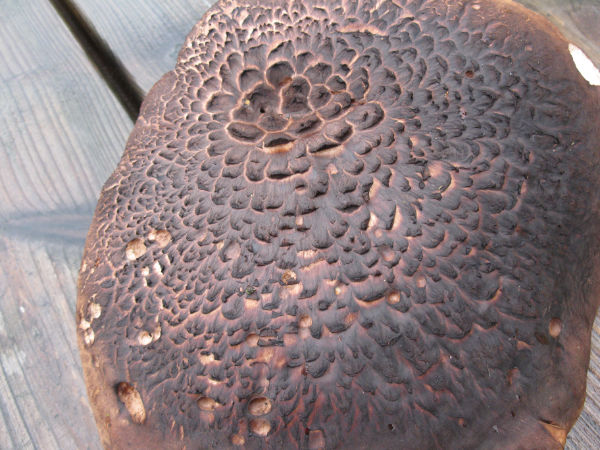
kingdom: Fungi
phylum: Basidiomycota
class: Agaricomycetes
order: Thelephorales
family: Bankeraceae
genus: Sarcodon
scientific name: Sarcodon squamosus
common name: småskællet kødpigsvamp
